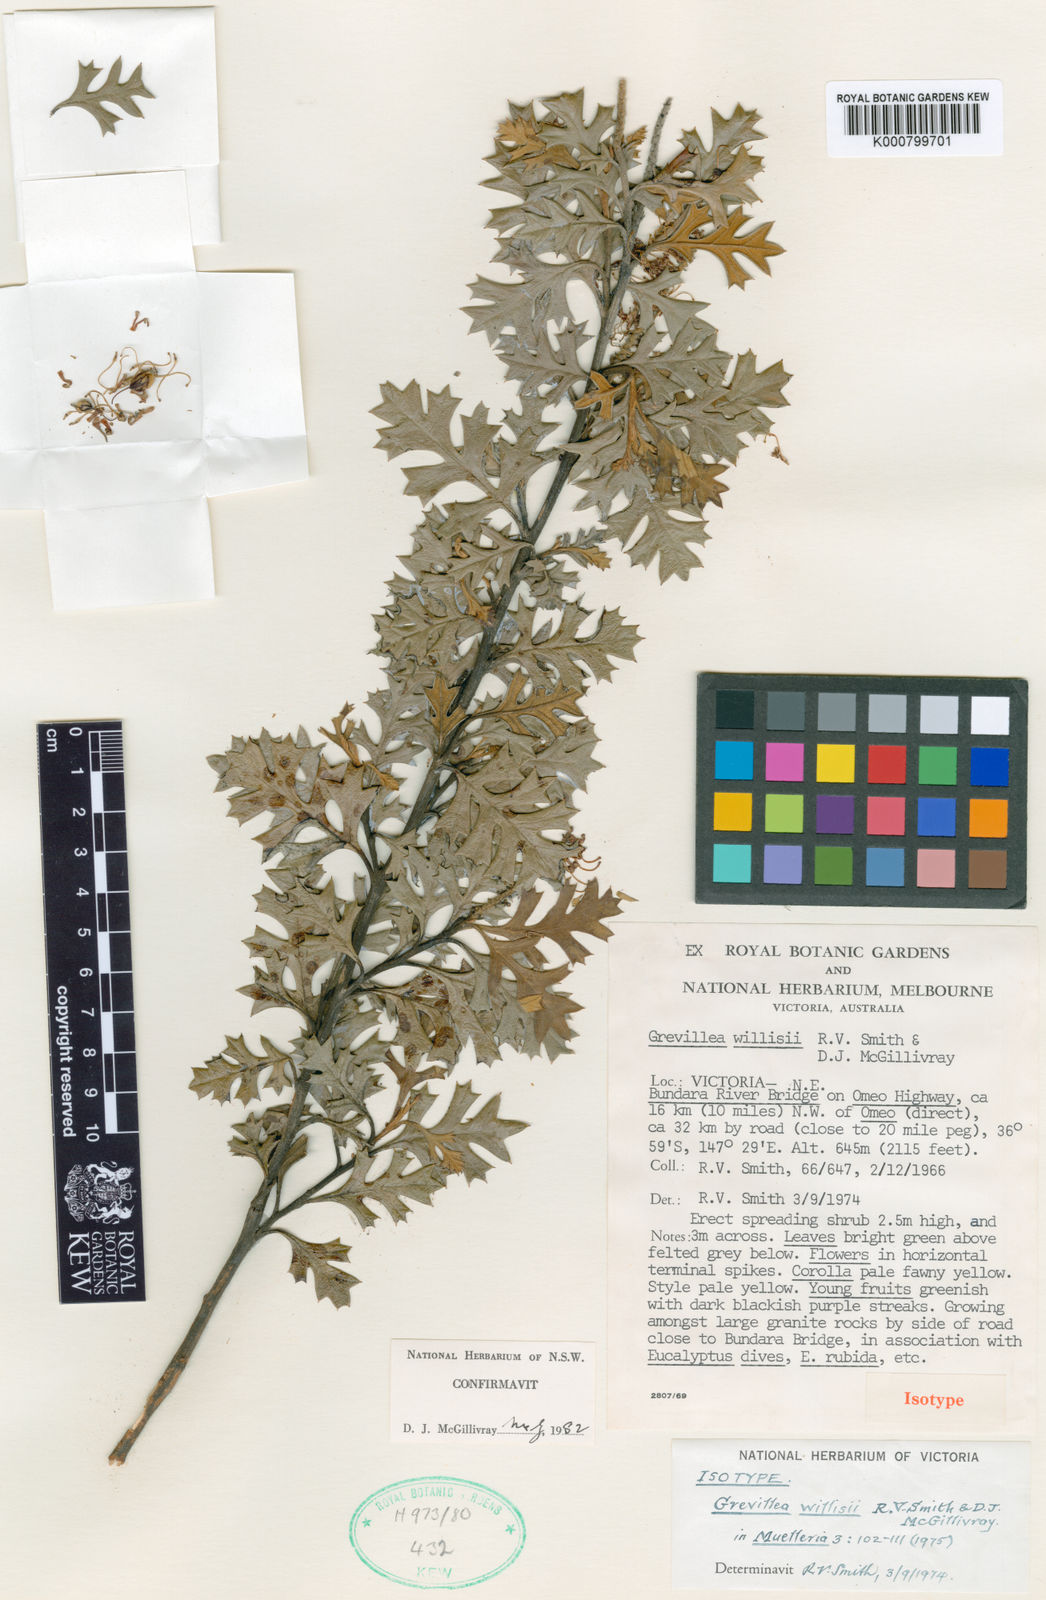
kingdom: Plantae
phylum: Tracheophyta
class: Magnoliopsida
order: Proteales
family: Proteaceae
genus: Grevillea
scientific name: Grevillea willisii
